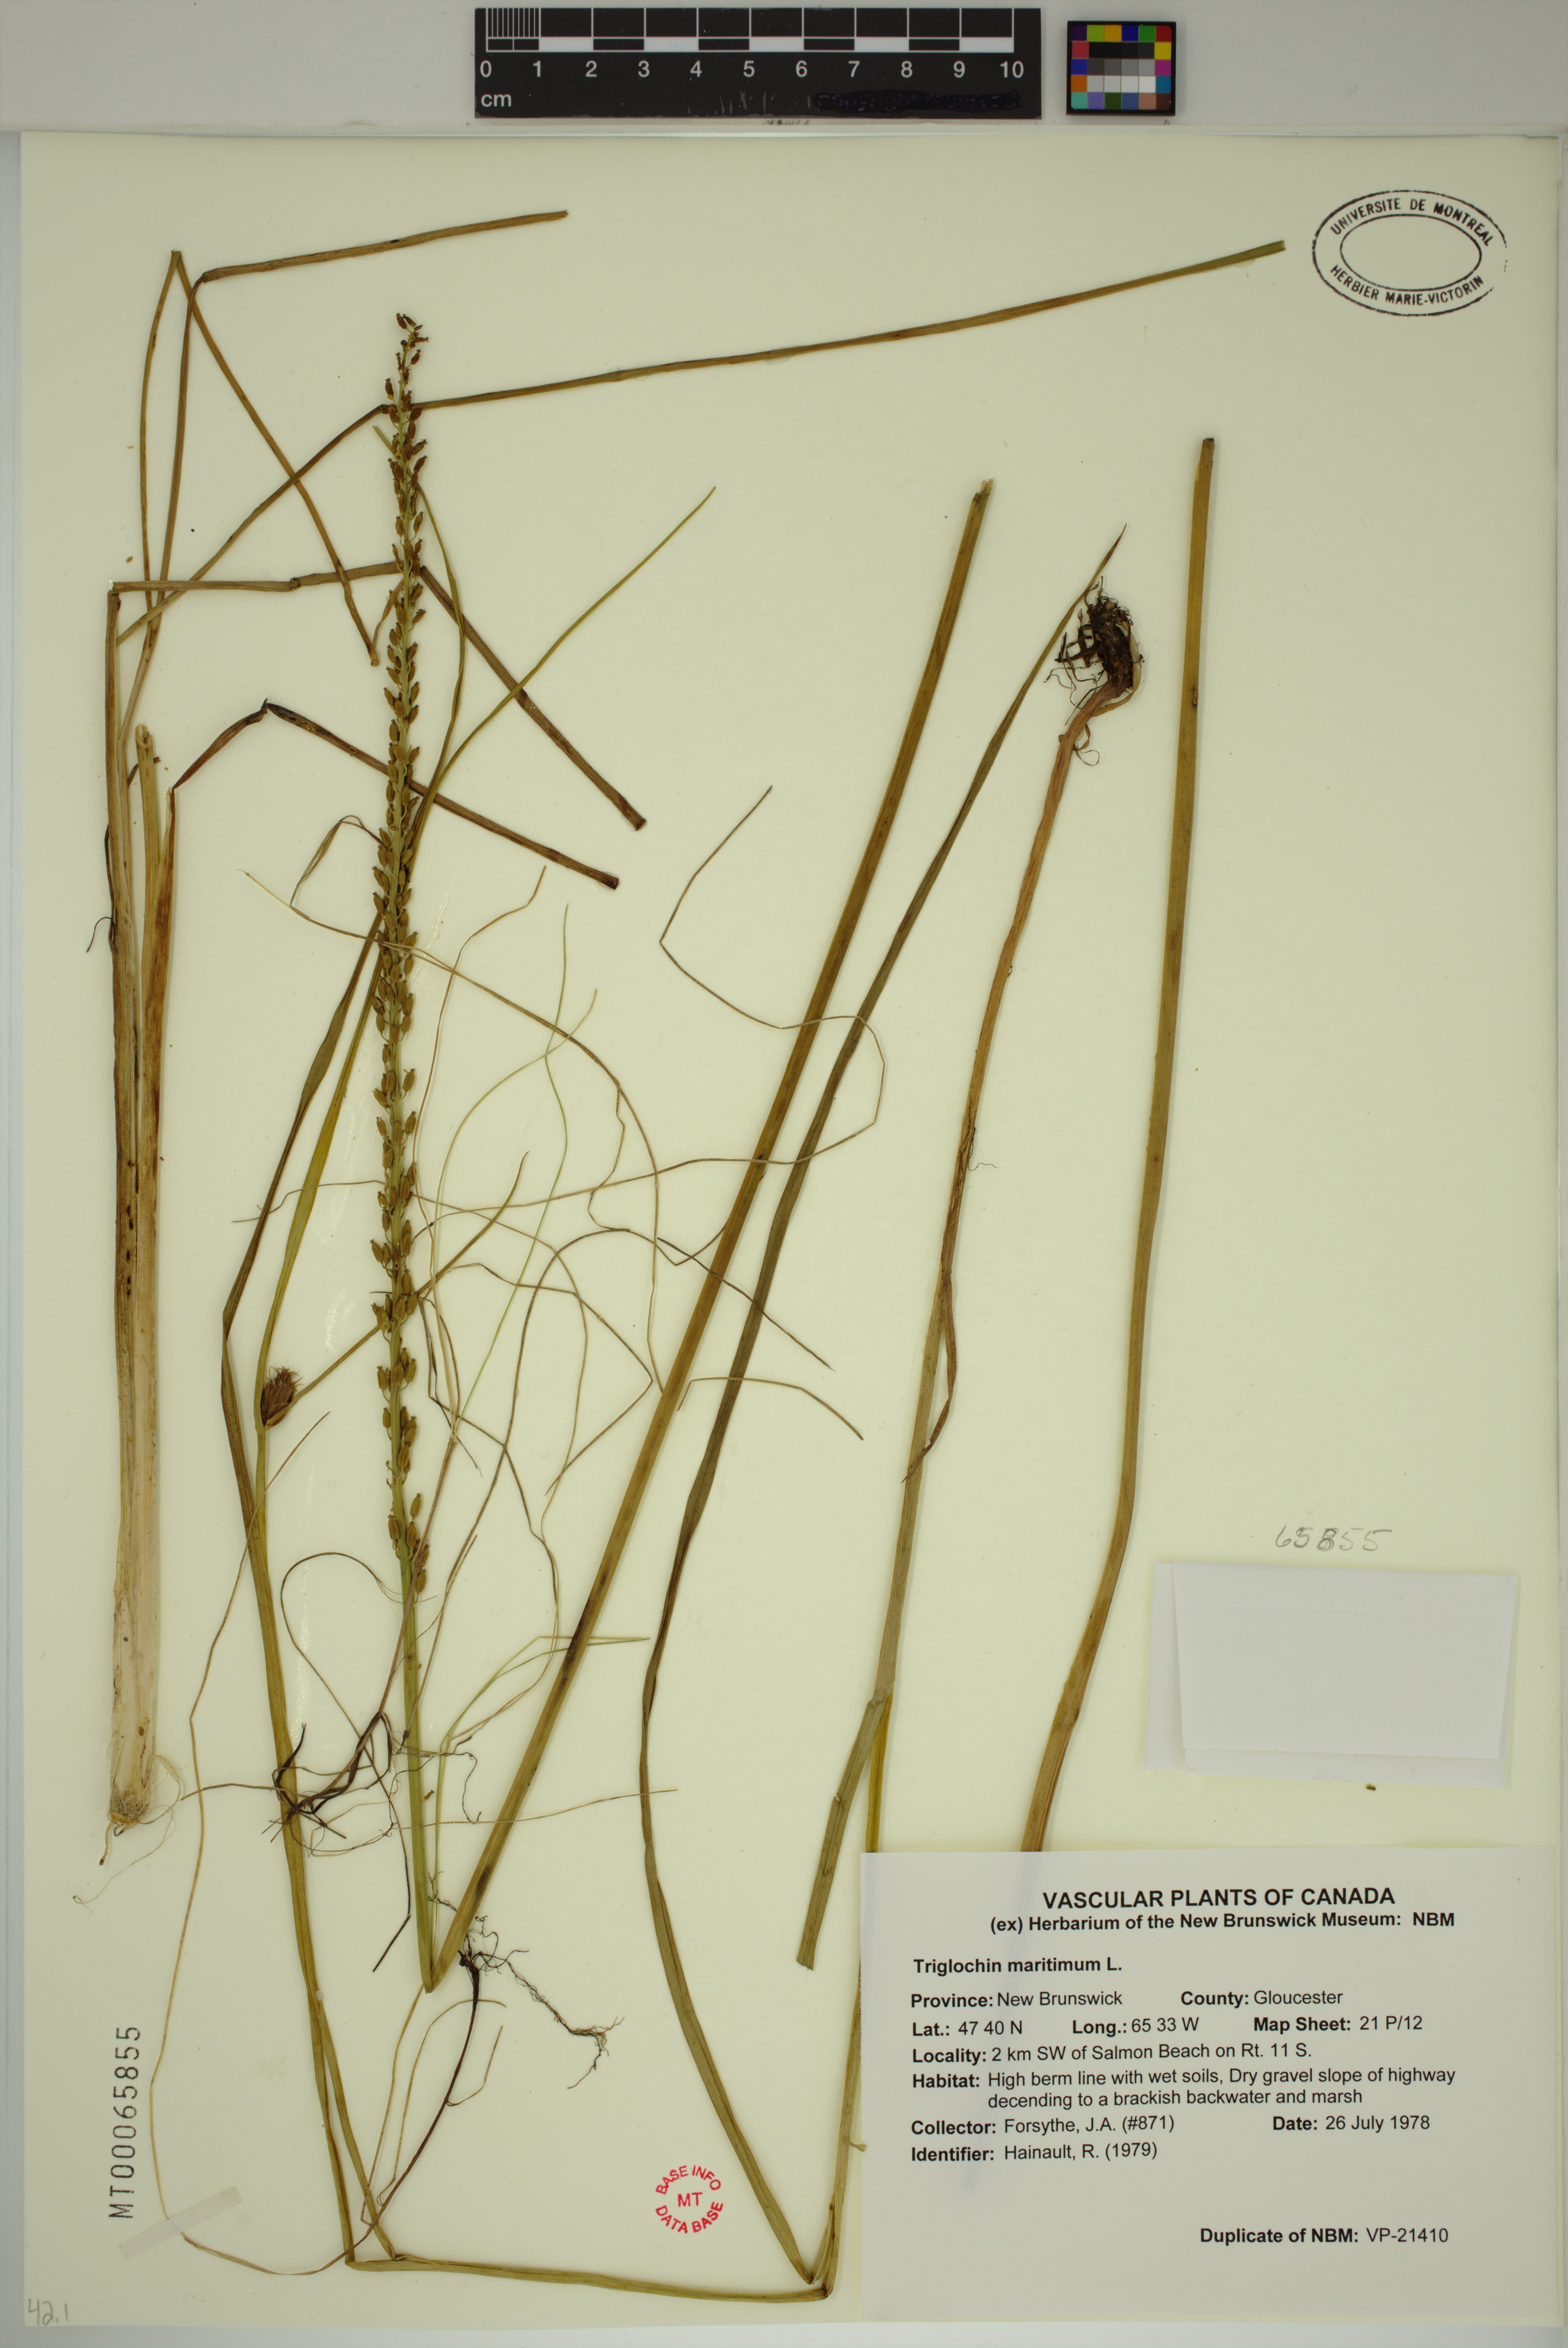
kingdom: Plantae
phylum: Tracheophyta
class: Liliopsida
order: Alismatales
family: Juncaginaceae
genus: Triglochin
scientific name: Triglochin maritima
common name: Sea arrowgrass
